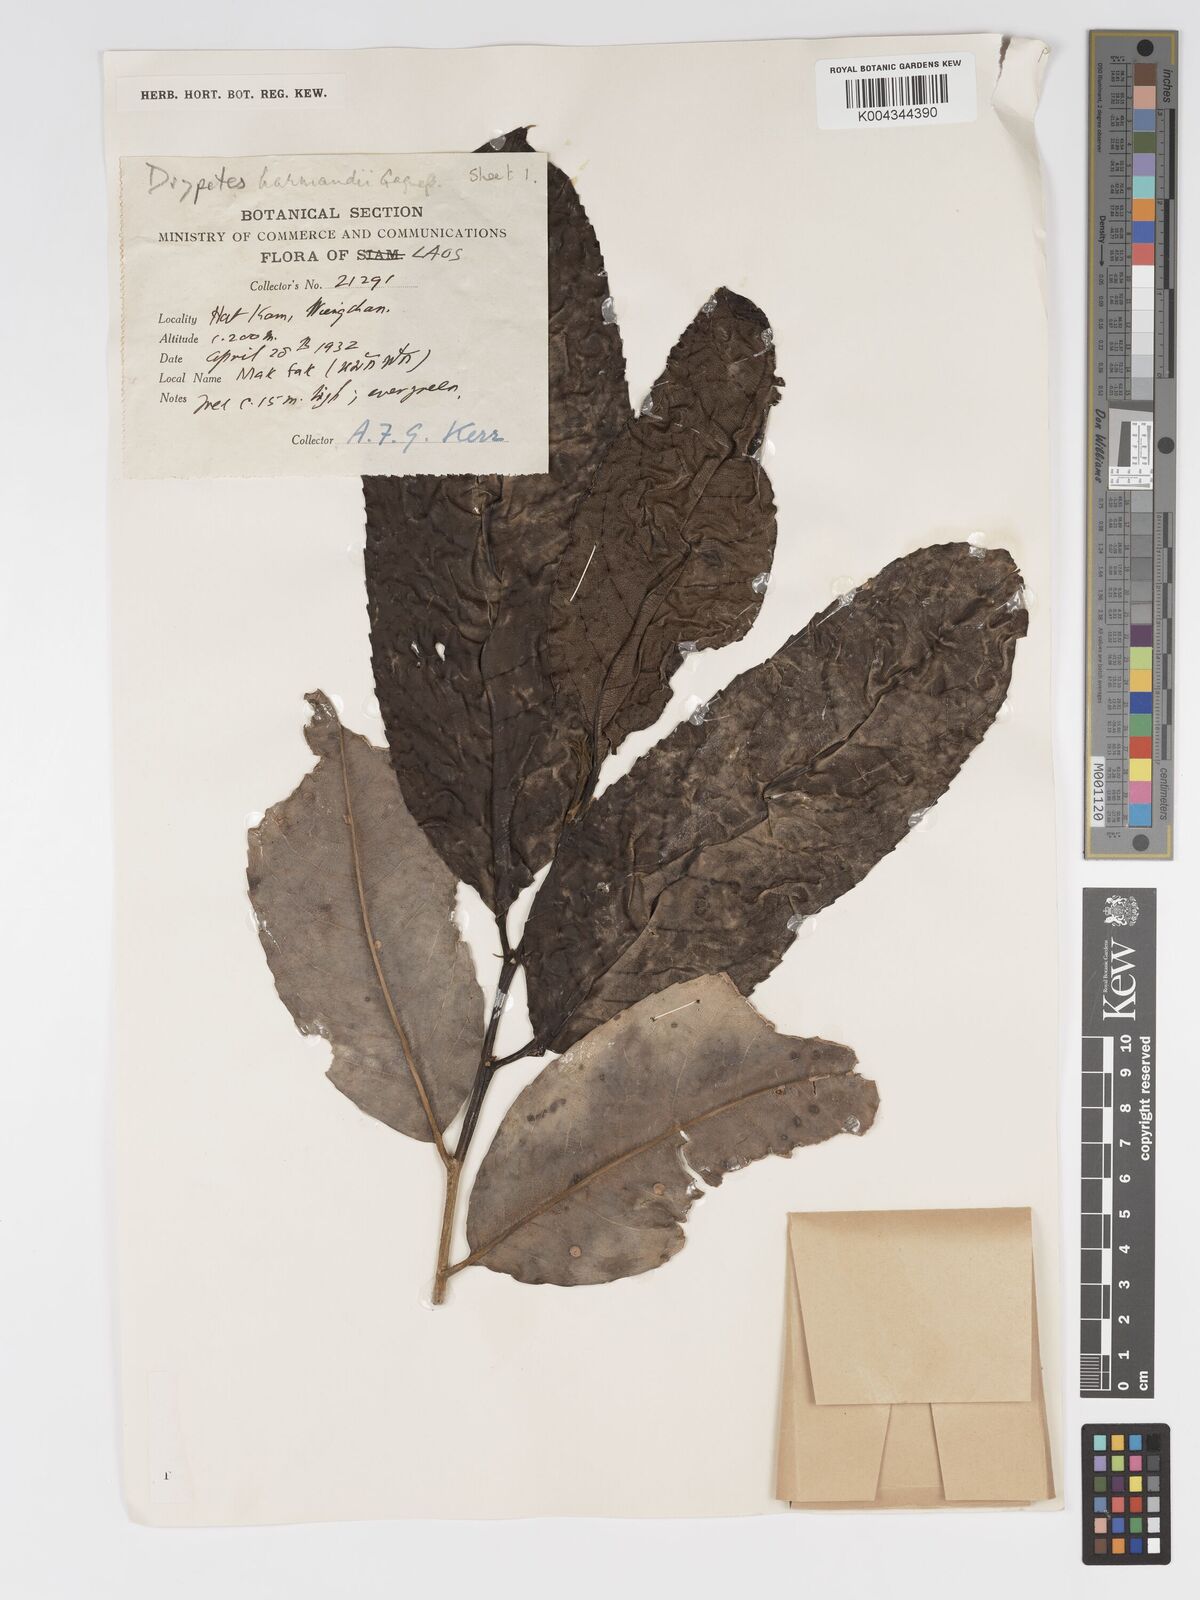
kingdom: Plantae
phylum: Tracheophyta
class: Magnoliopsida
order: Malpighiales
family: Putranjivaceae
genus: Drypetes
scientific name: Drypetes harmandii
